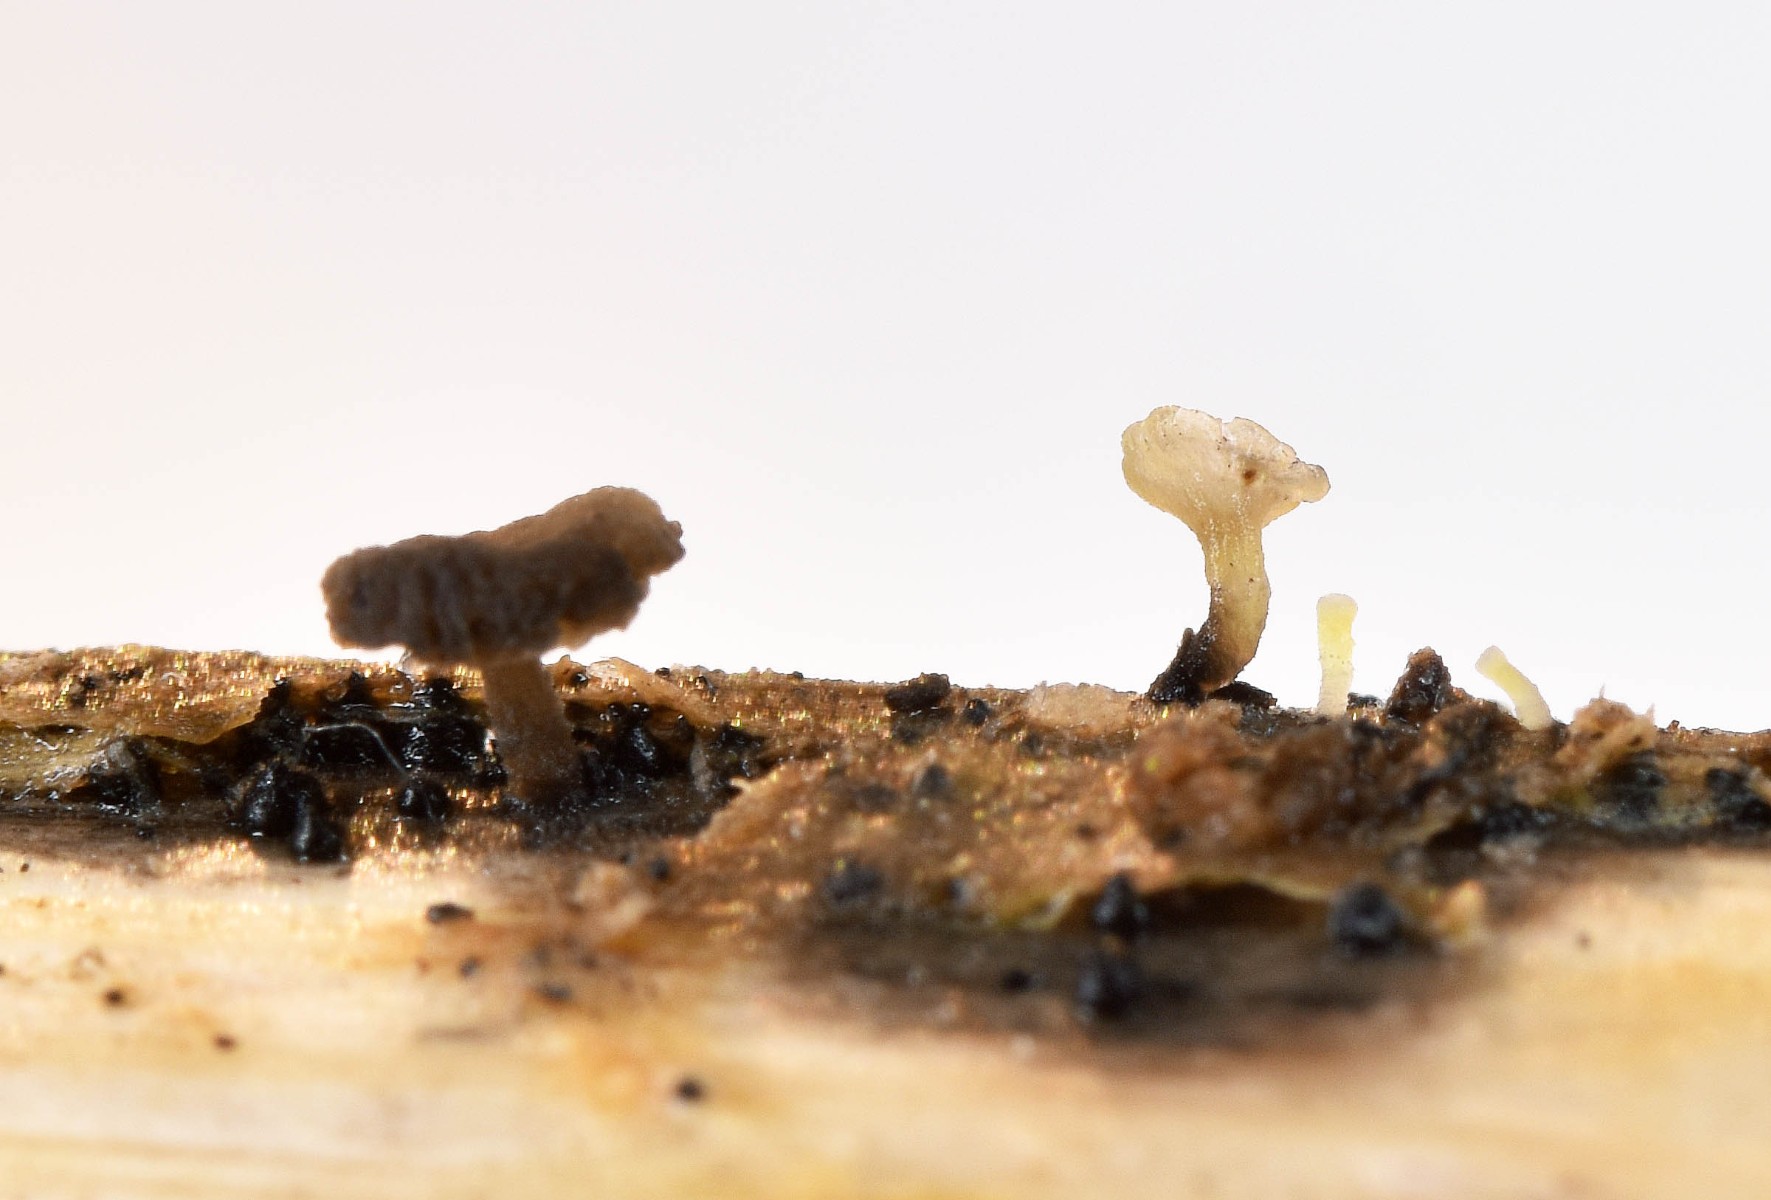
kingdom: Fungi
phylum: Basidiomycota
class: Agaricomycetes
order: Agaricales
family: Marasmiaceae
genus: Calyptella
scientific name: Calyptella campanula
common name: gul nældehue
